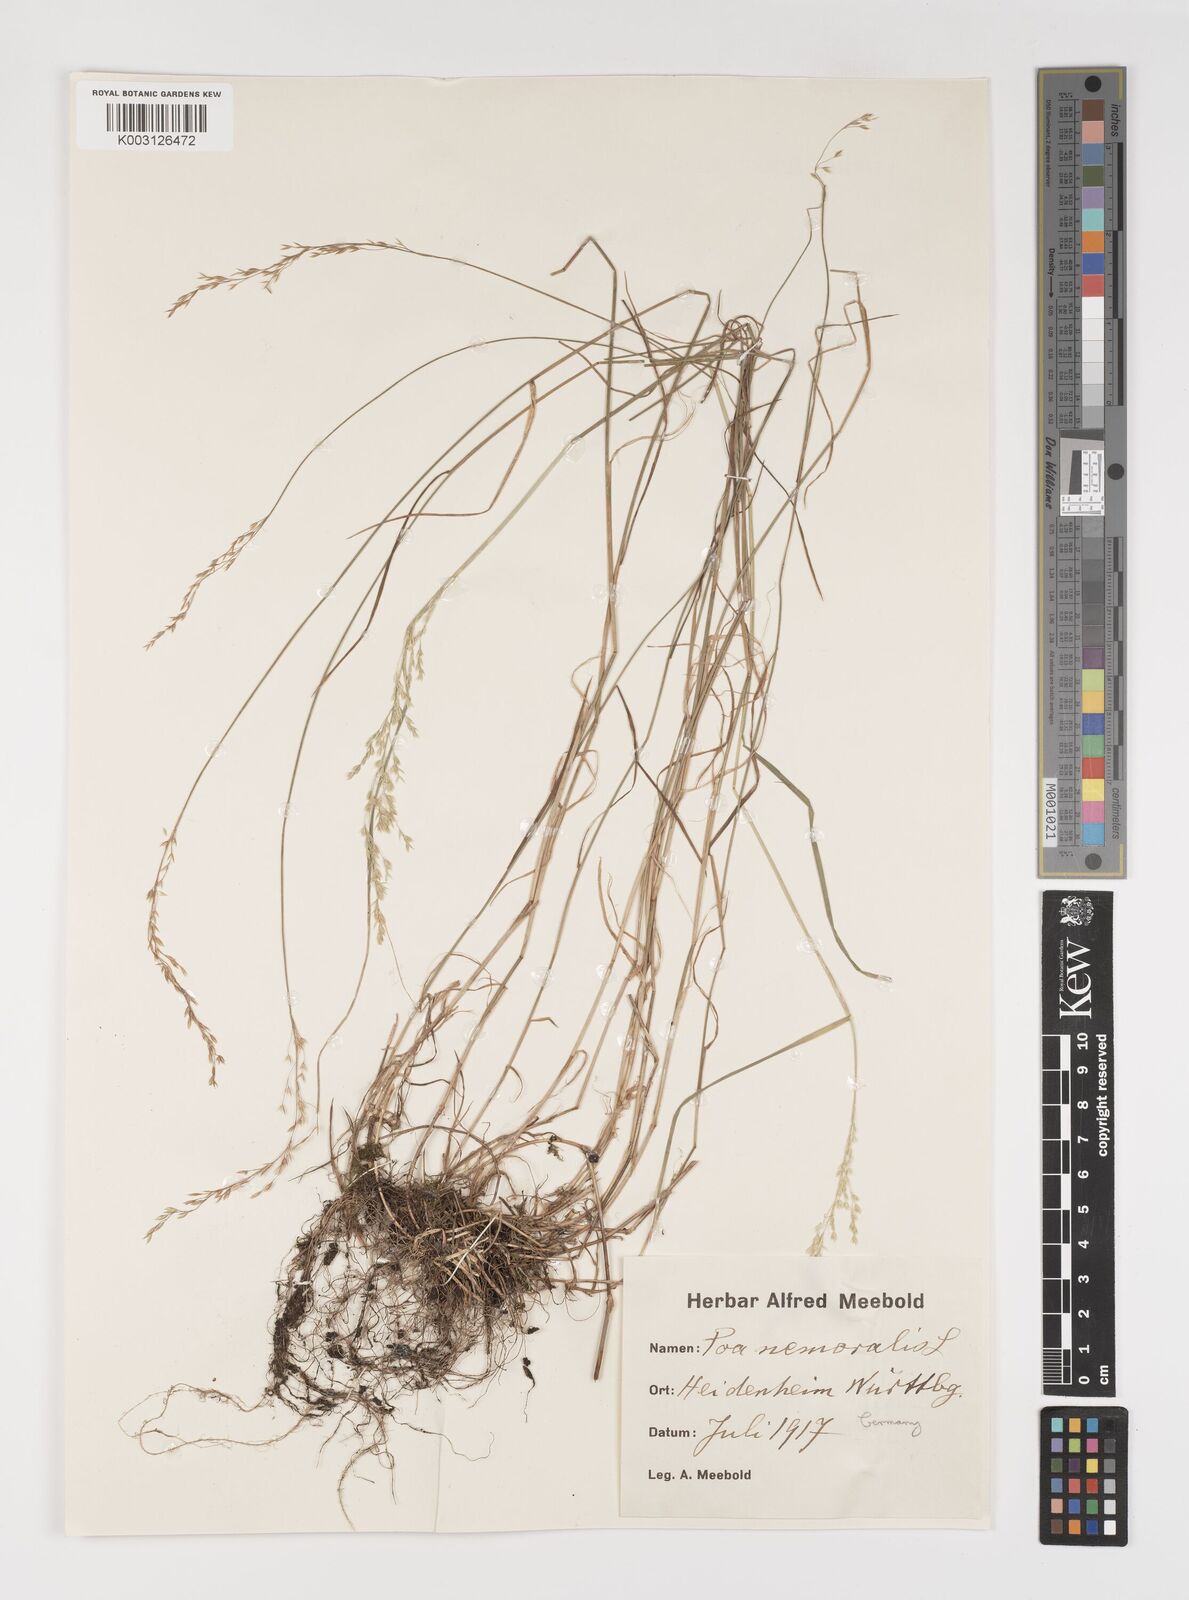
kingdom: Plantae
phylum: Tracheophyta
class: Liliopsida
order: Poales
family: Poaceae
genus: Poa
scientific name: Poa nemoralis
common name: Wood bluegrass
